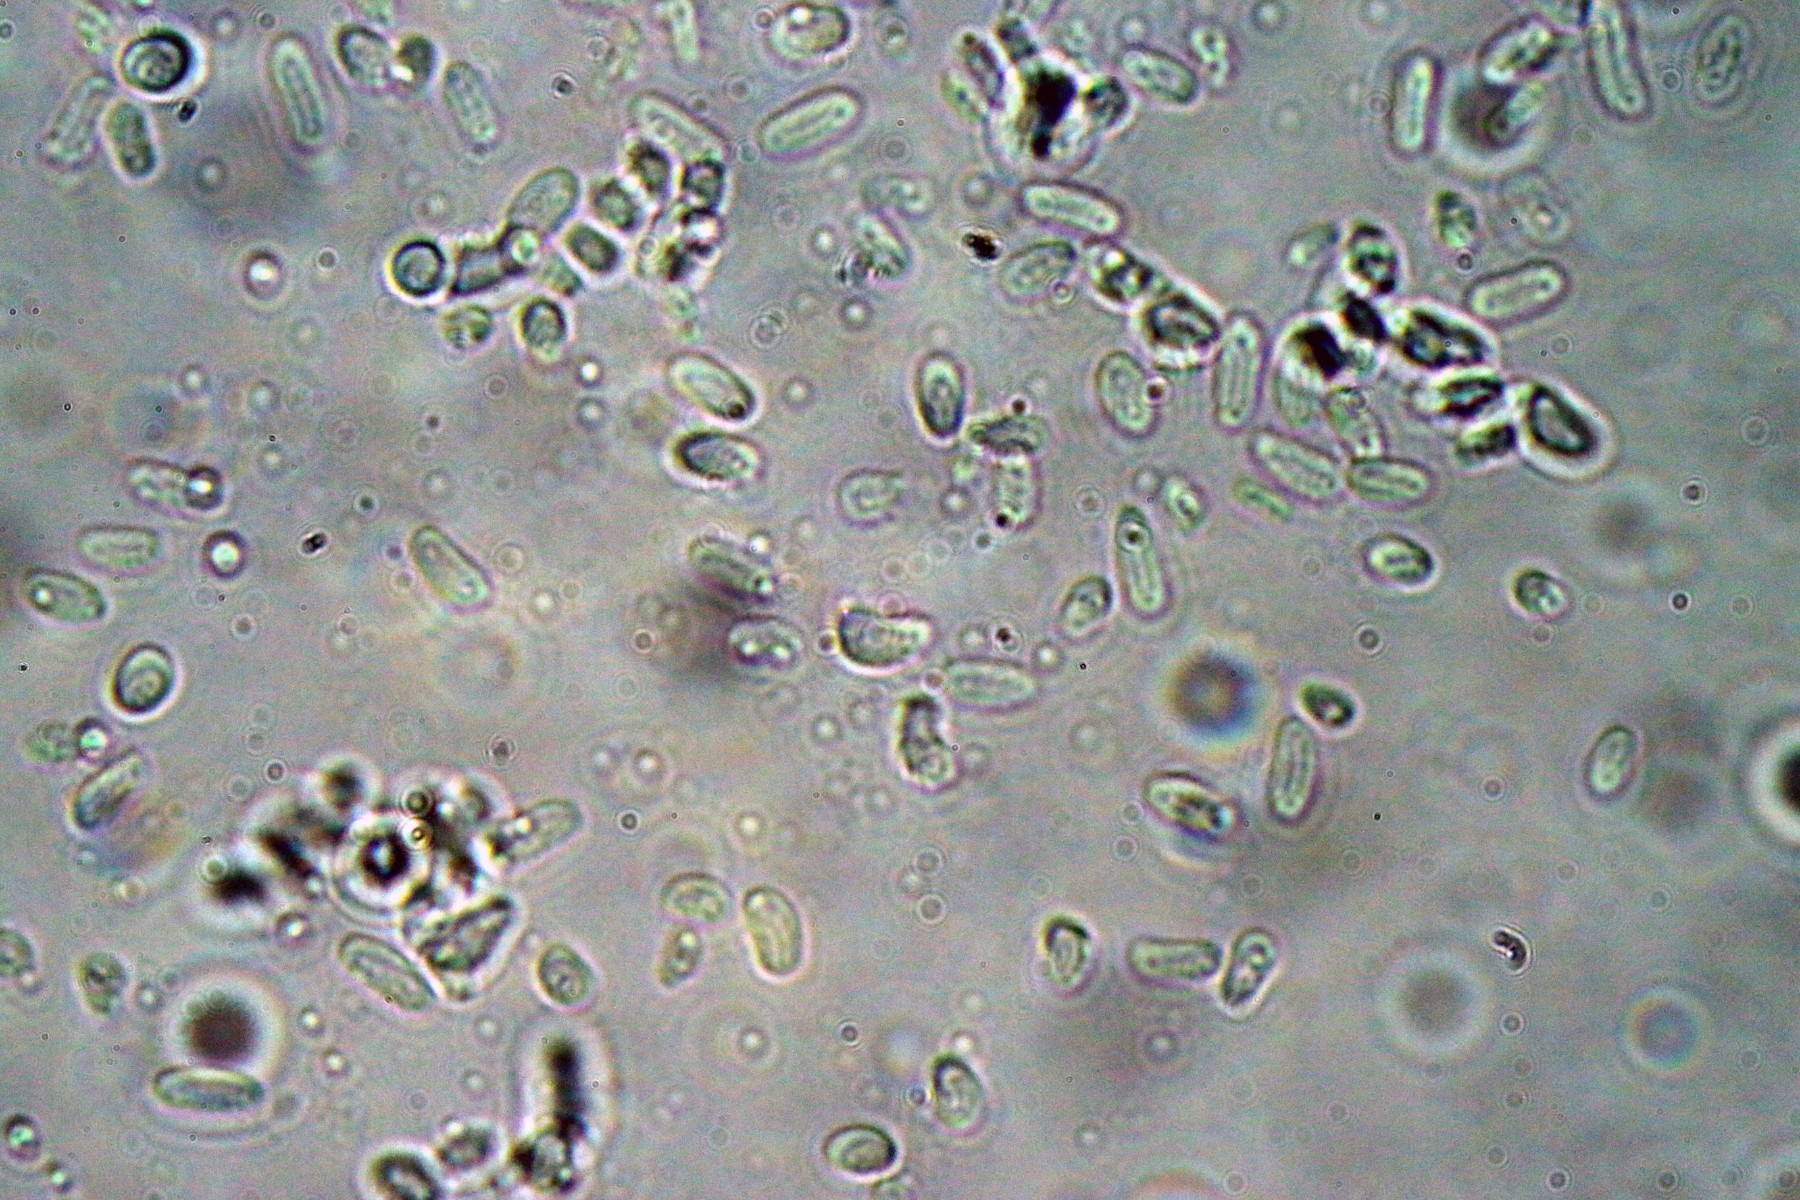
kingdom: Fungi
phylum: Ascomycota
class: Dothideomycetes
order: Pleosporales
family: Diademaceae
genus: Comoclathris
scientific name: Comoclathris typhicola
